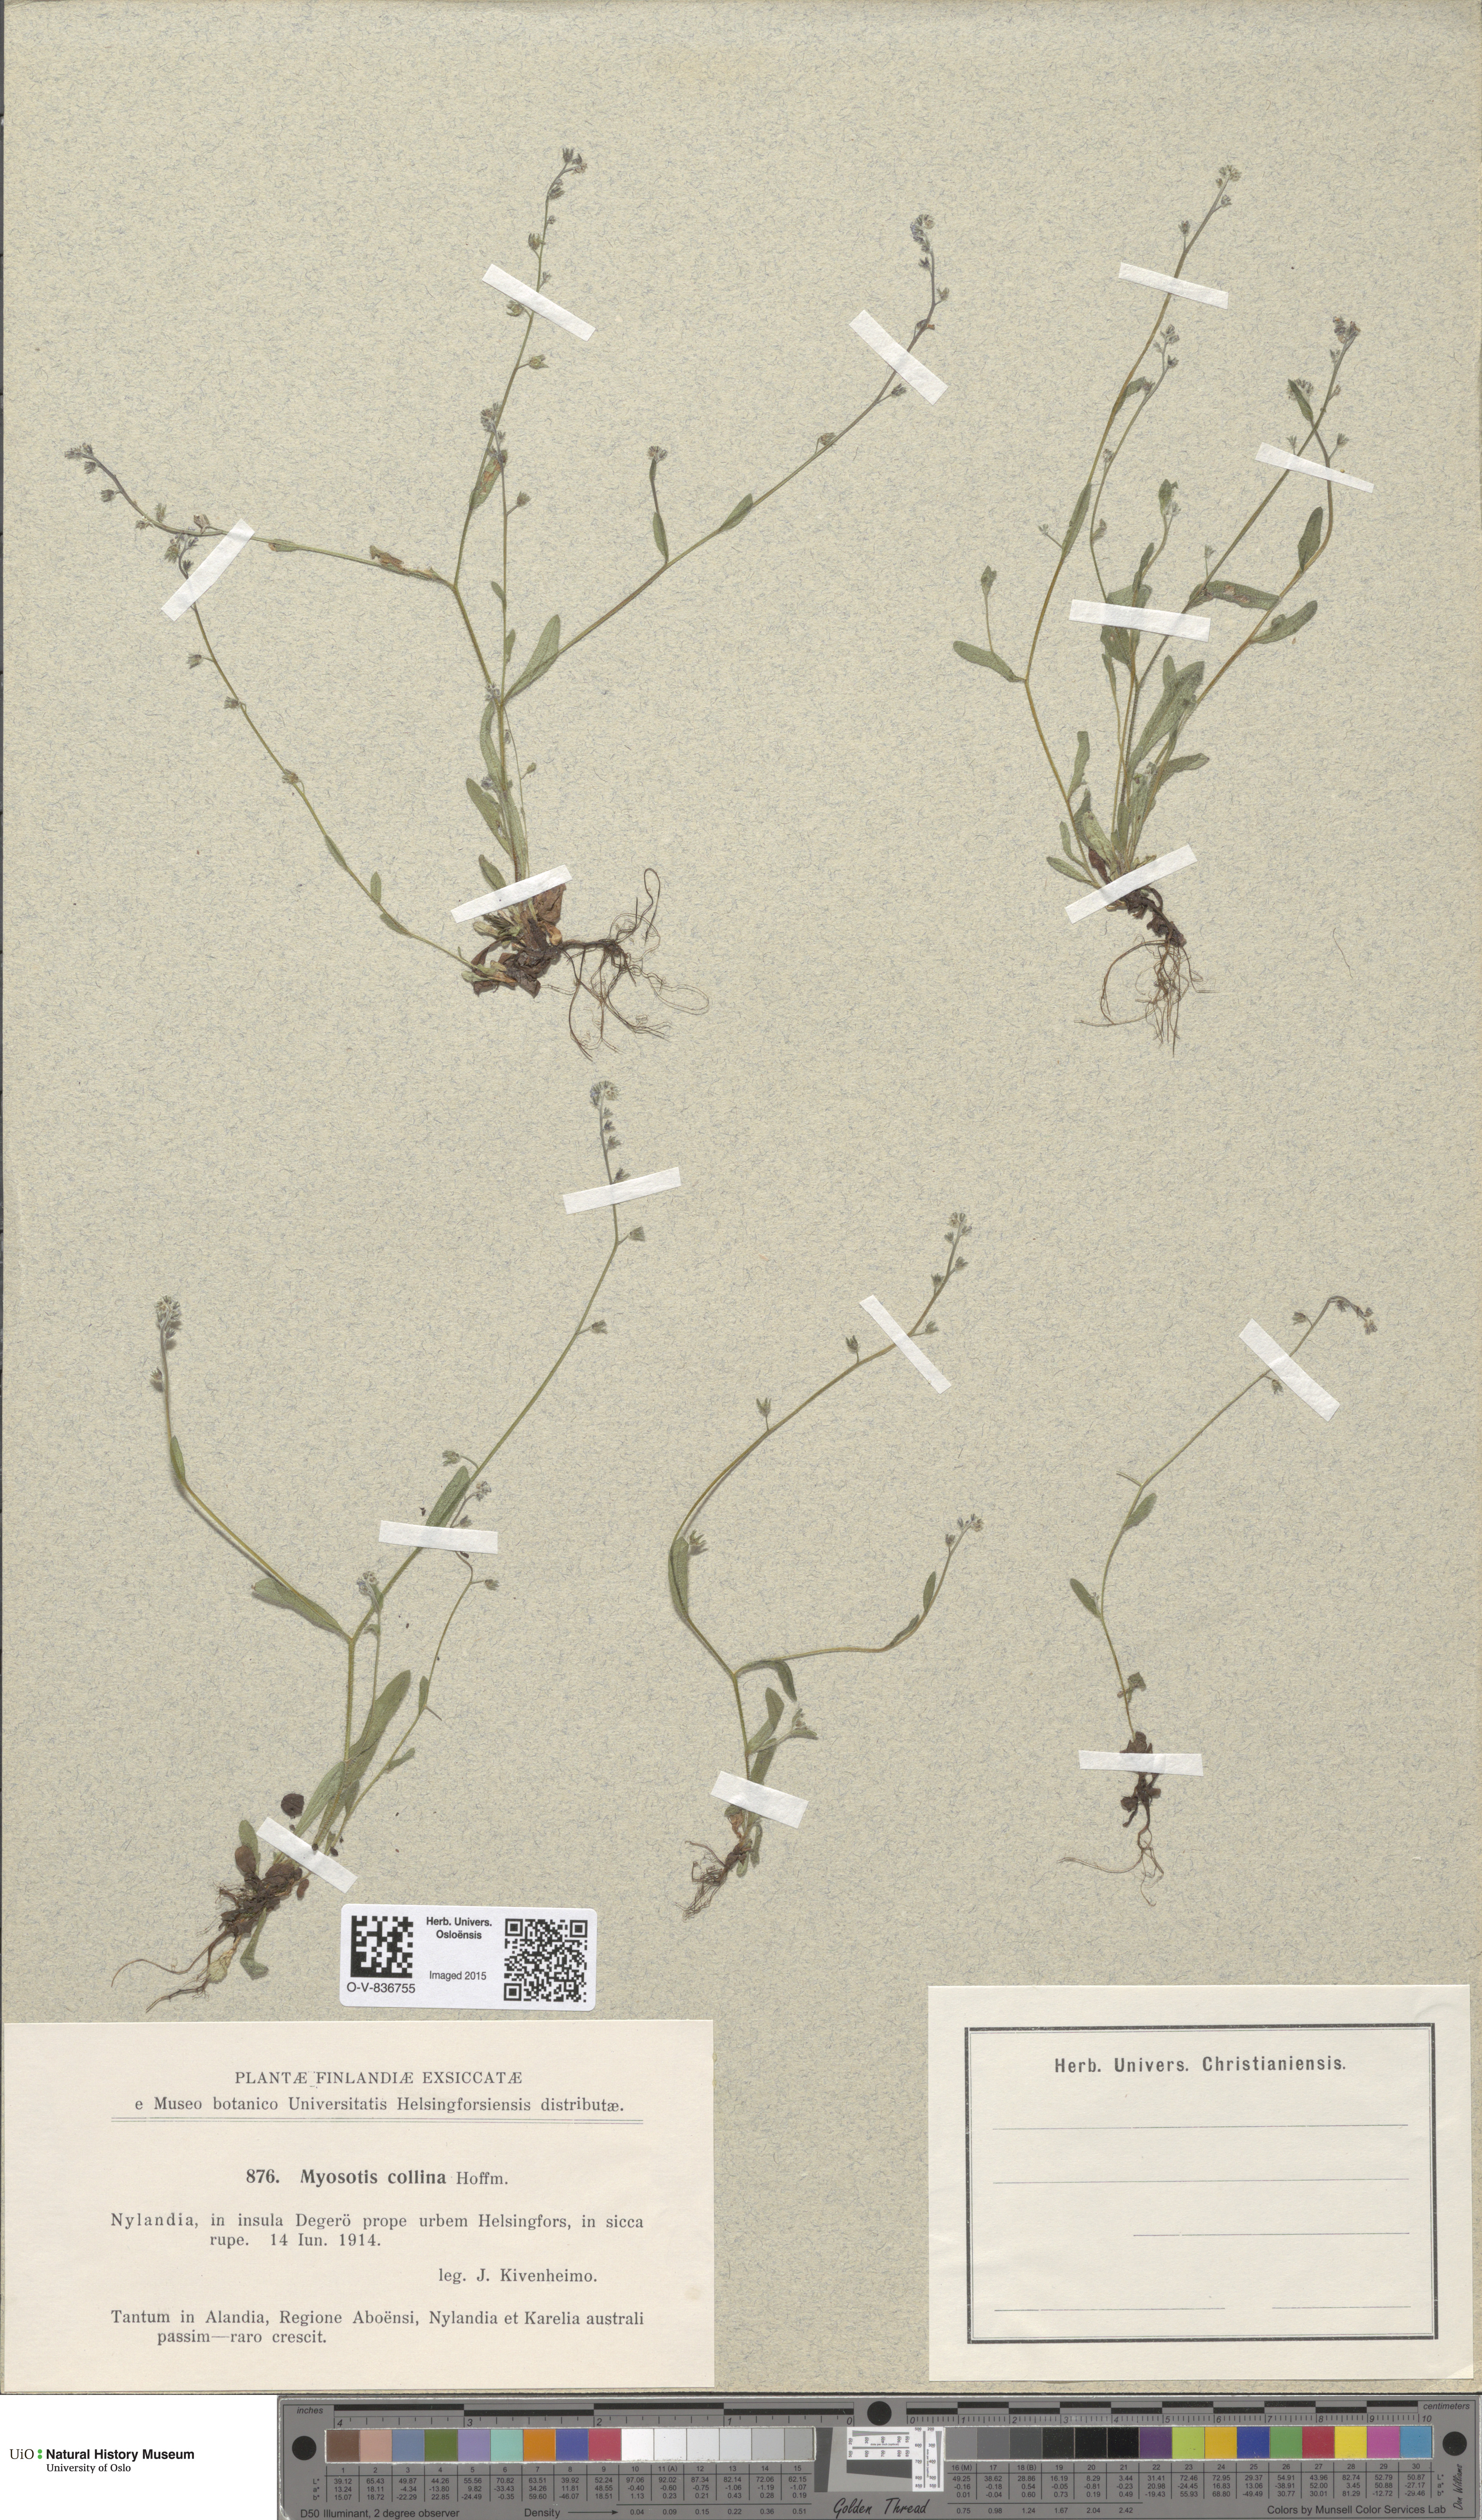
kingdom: Plantae
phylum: Tracheophyta
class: Magnoliopsida
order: Boraginales
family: Boraginaceae
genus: Myosotis
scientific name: Myosotis ramosissima
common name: Early forget-me-not
